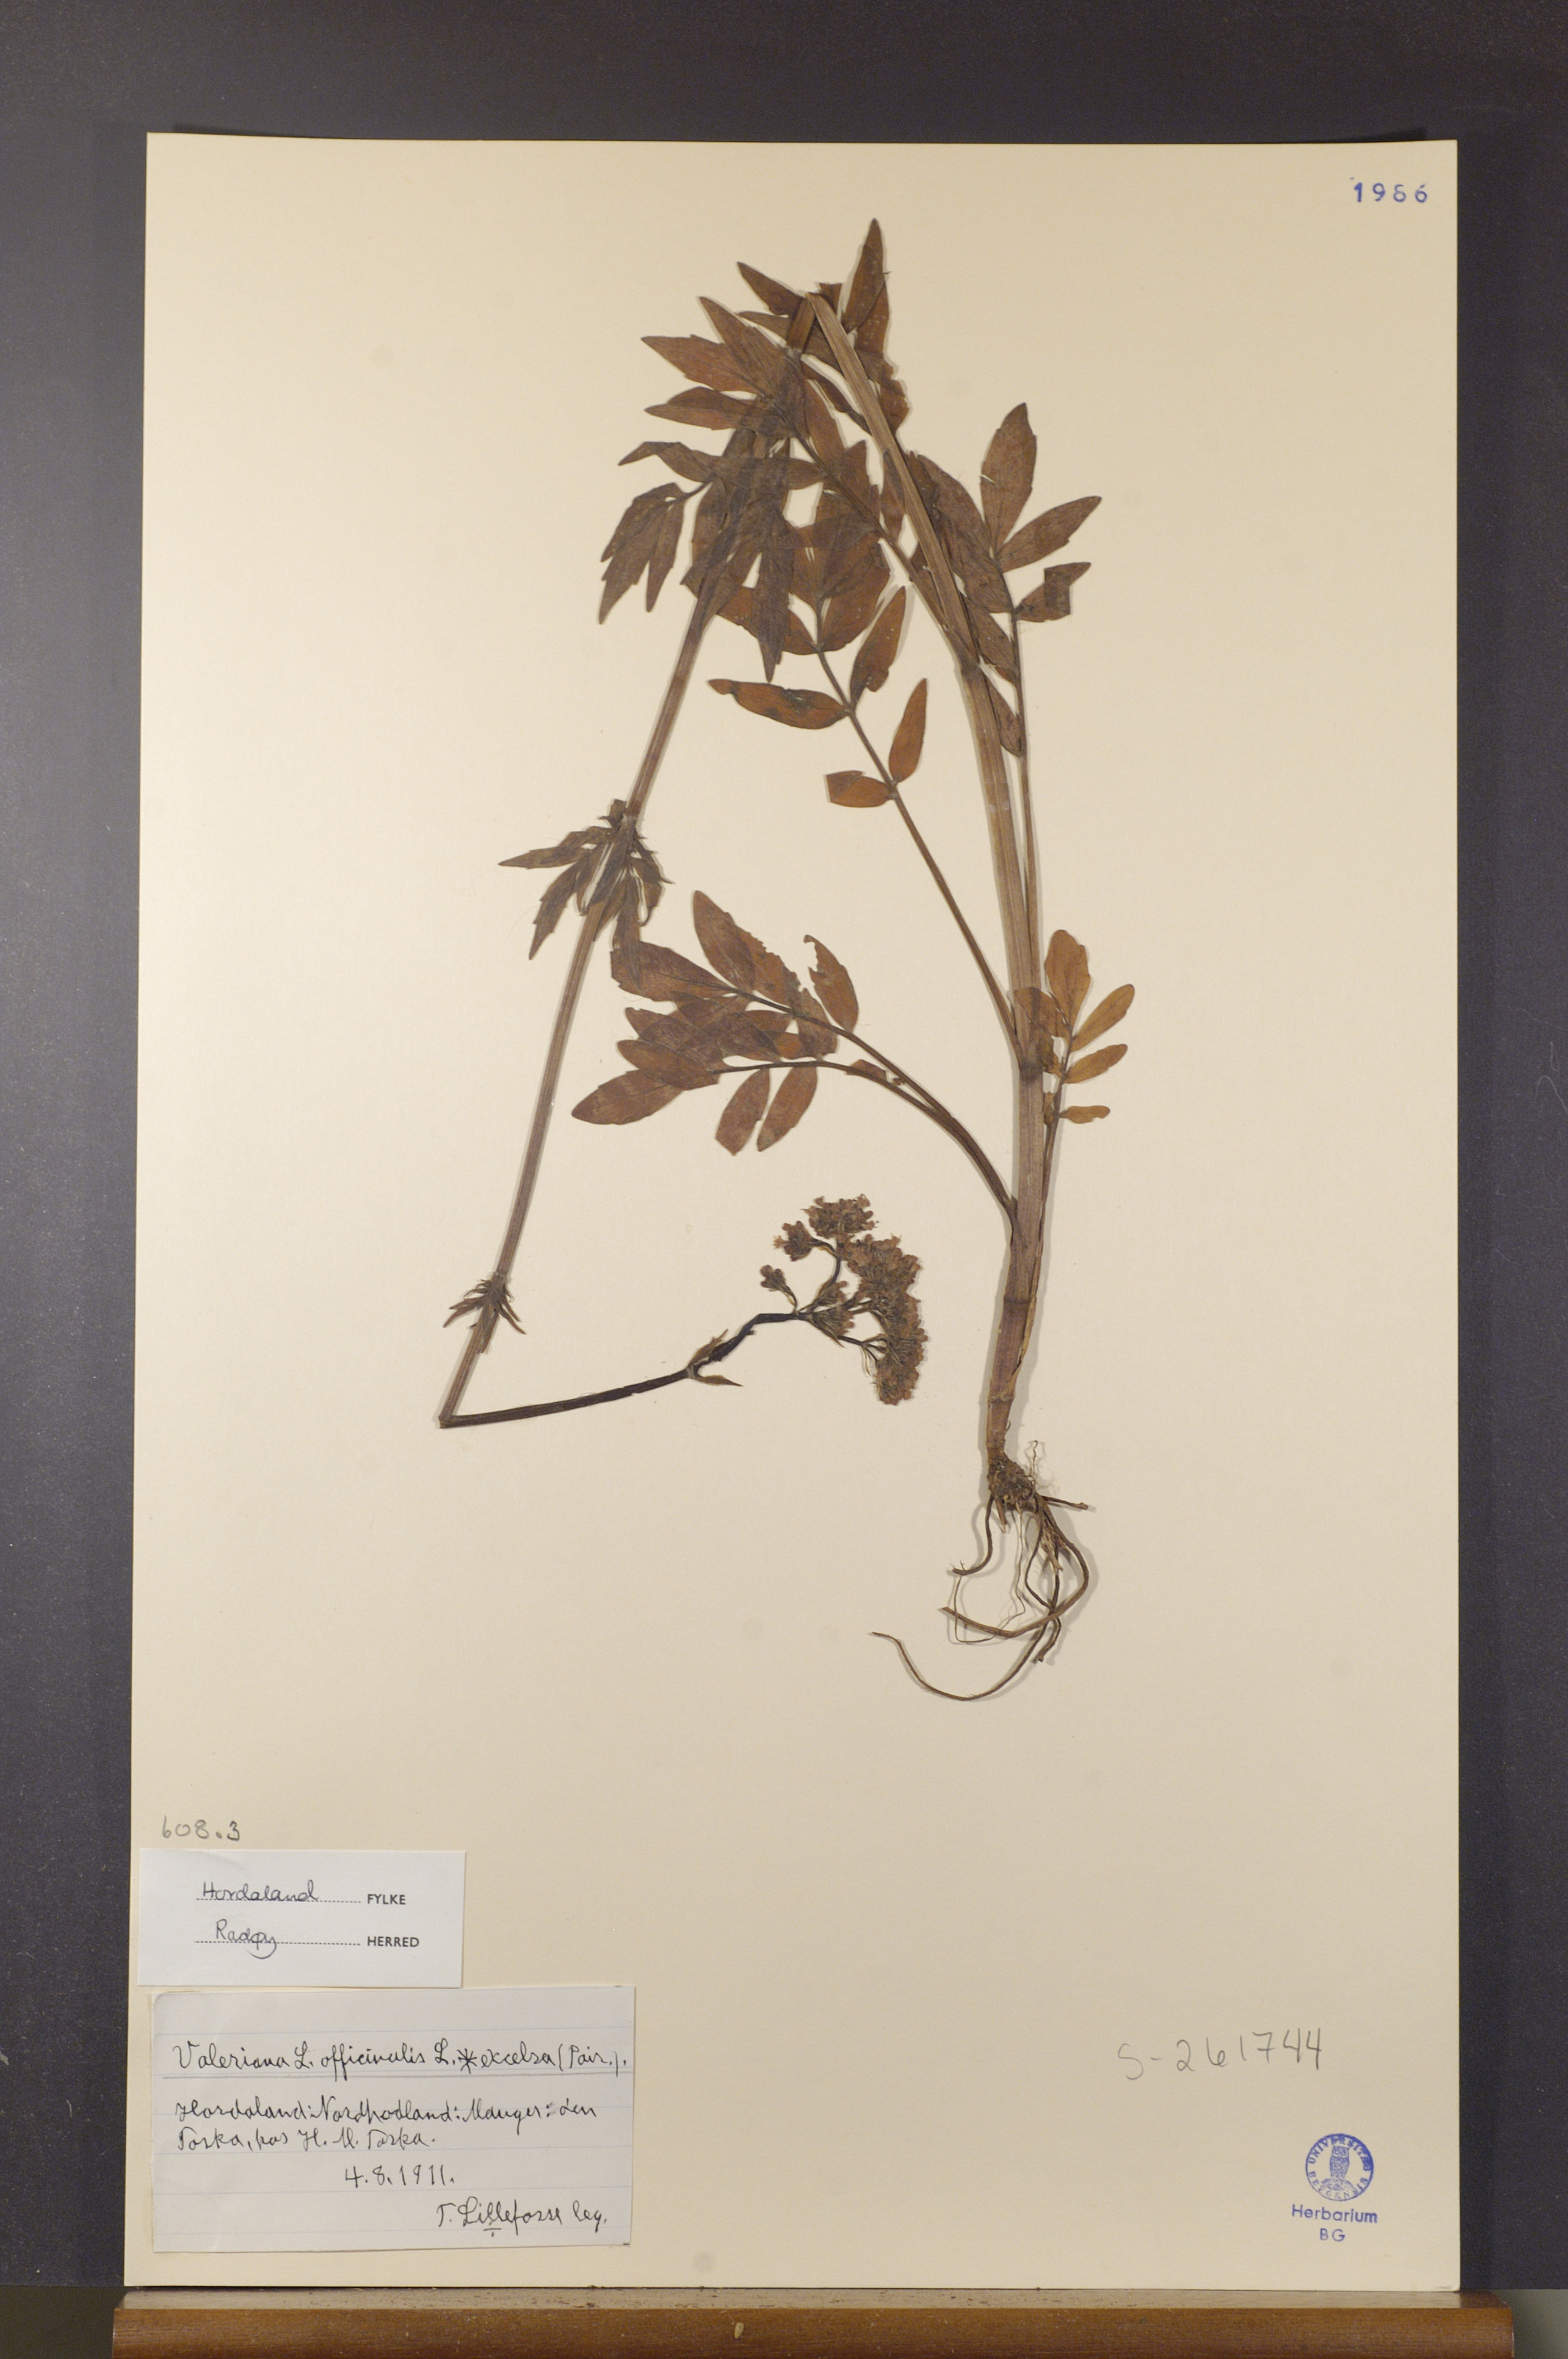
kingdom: Plantae
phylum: Tracheophyta
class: Magnoliopsida
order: Dipsacales
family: Caprifoliaceae
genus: Valeriana
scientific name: Valeriana sambucifolia
